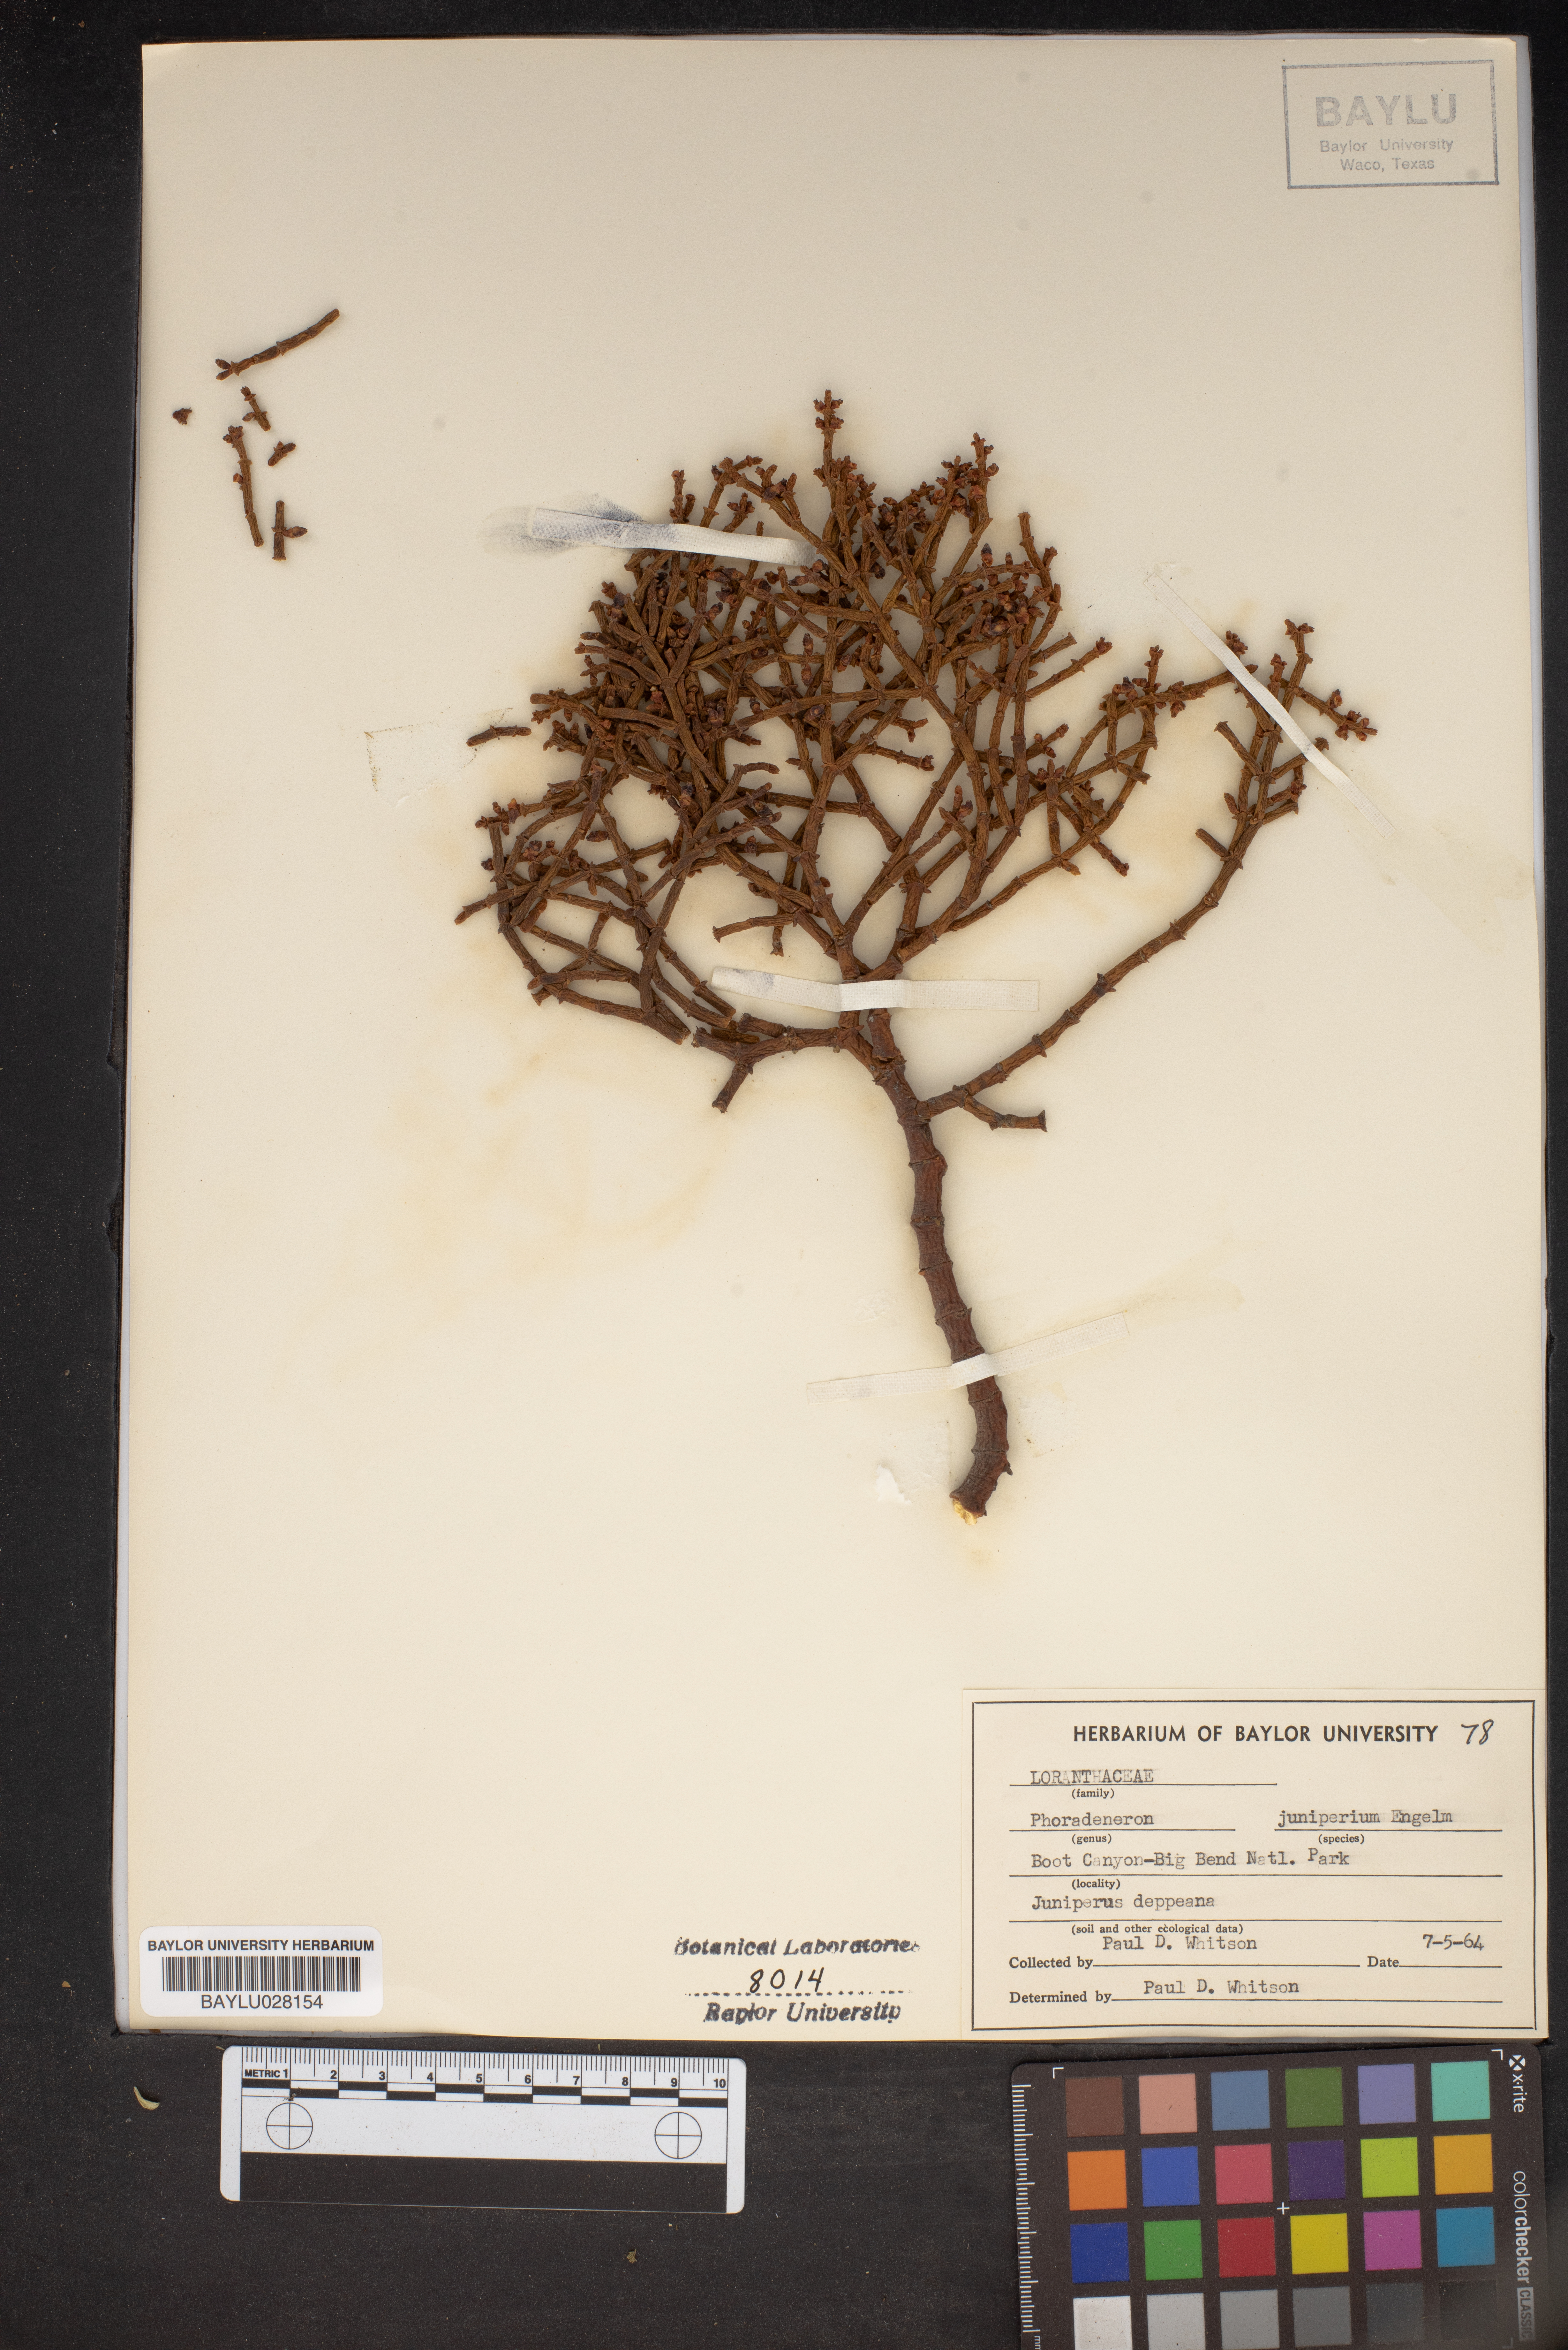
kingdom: Plantae
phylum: Tracheophyta
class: Magnoliopsida
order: Santalales
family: Viscaceae
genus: Phoradendron
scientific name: Phoradendron juniperinum
